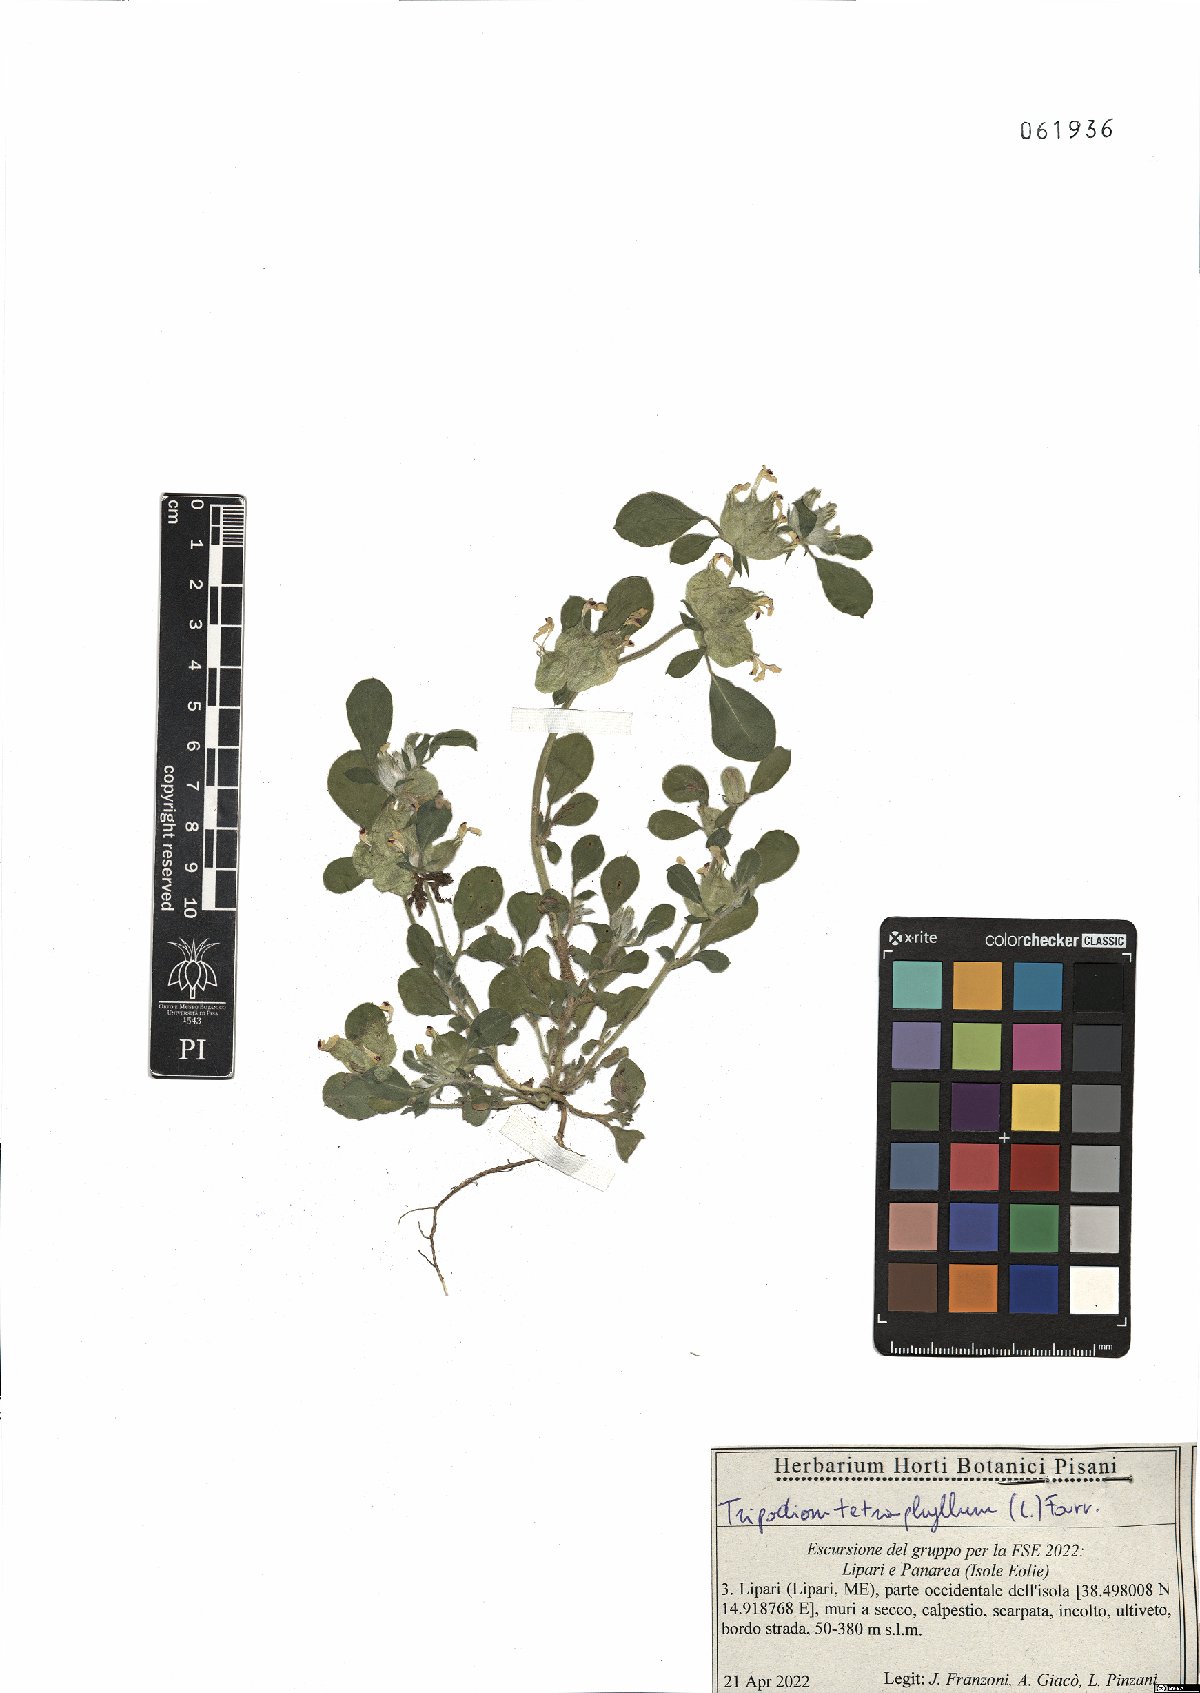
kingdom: Plantae
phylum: Tracheophyta
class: Magnoliopsida
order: Fabales
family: Fabaceae
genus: Tripodion
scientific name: Tripodion tetraphyllum
